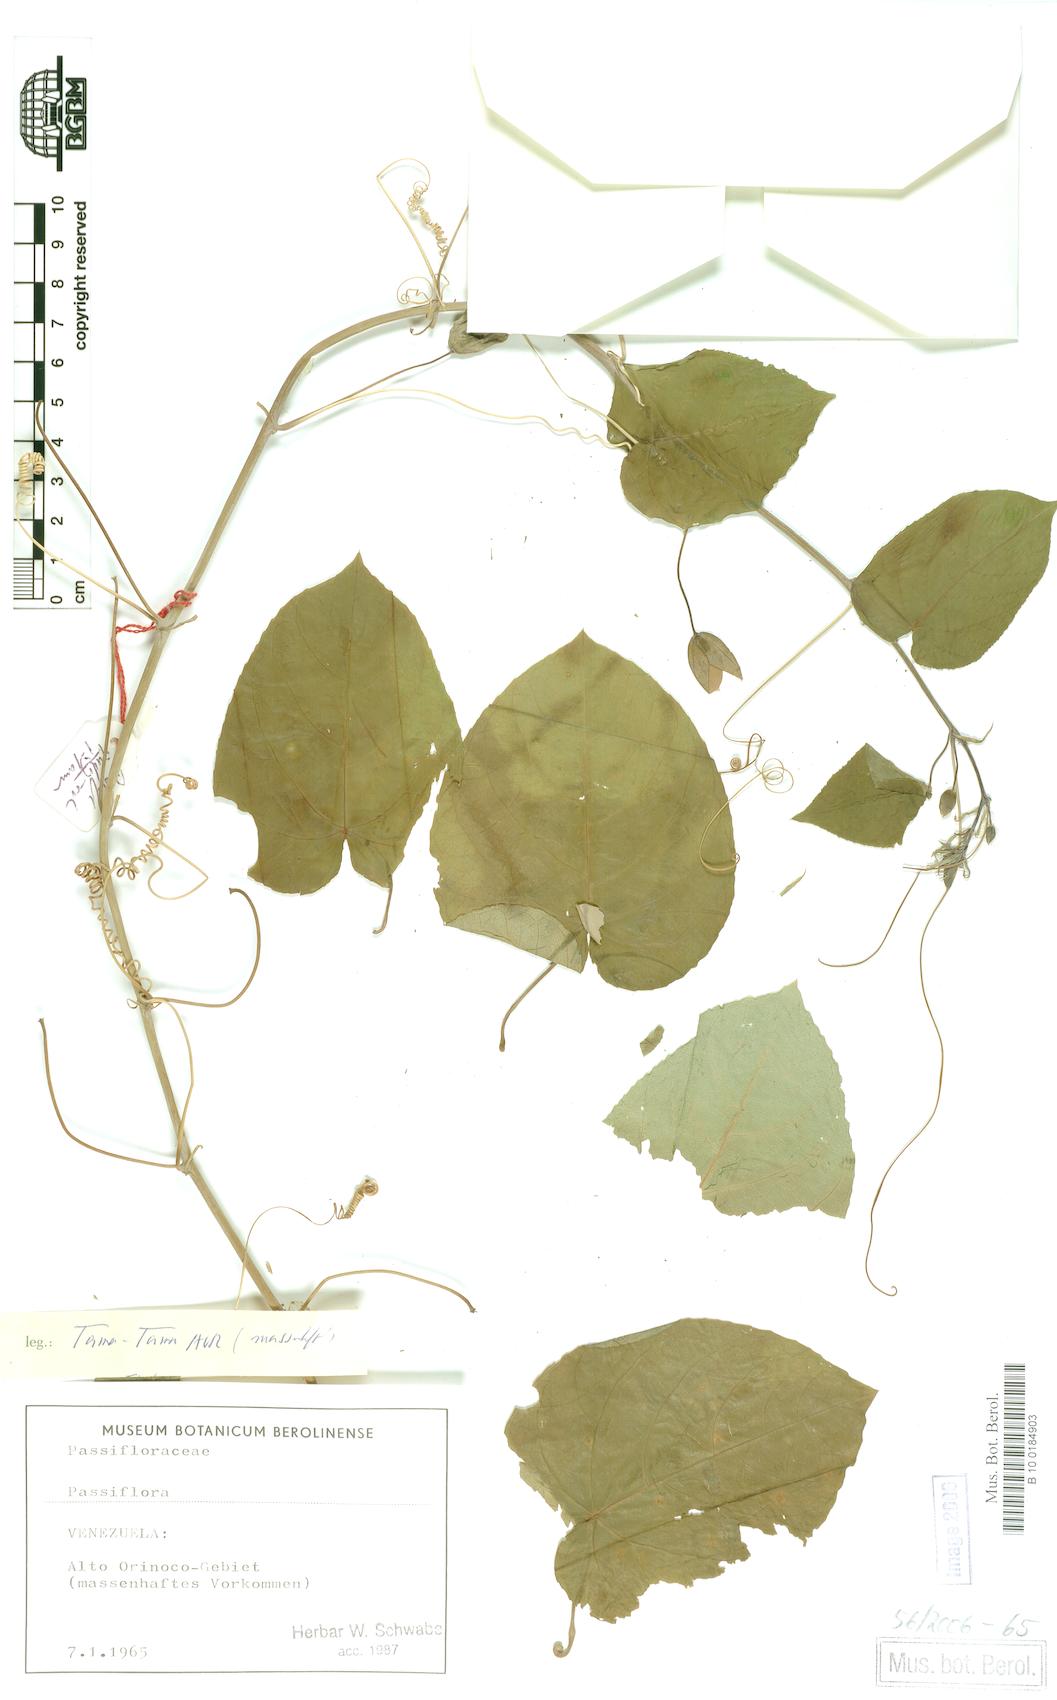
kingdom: Plantae
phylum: Tracheophyta
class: Magnoliopsida
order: Malpighiales
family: Passifloraceae
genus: Passiflora
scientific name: Passiflora
